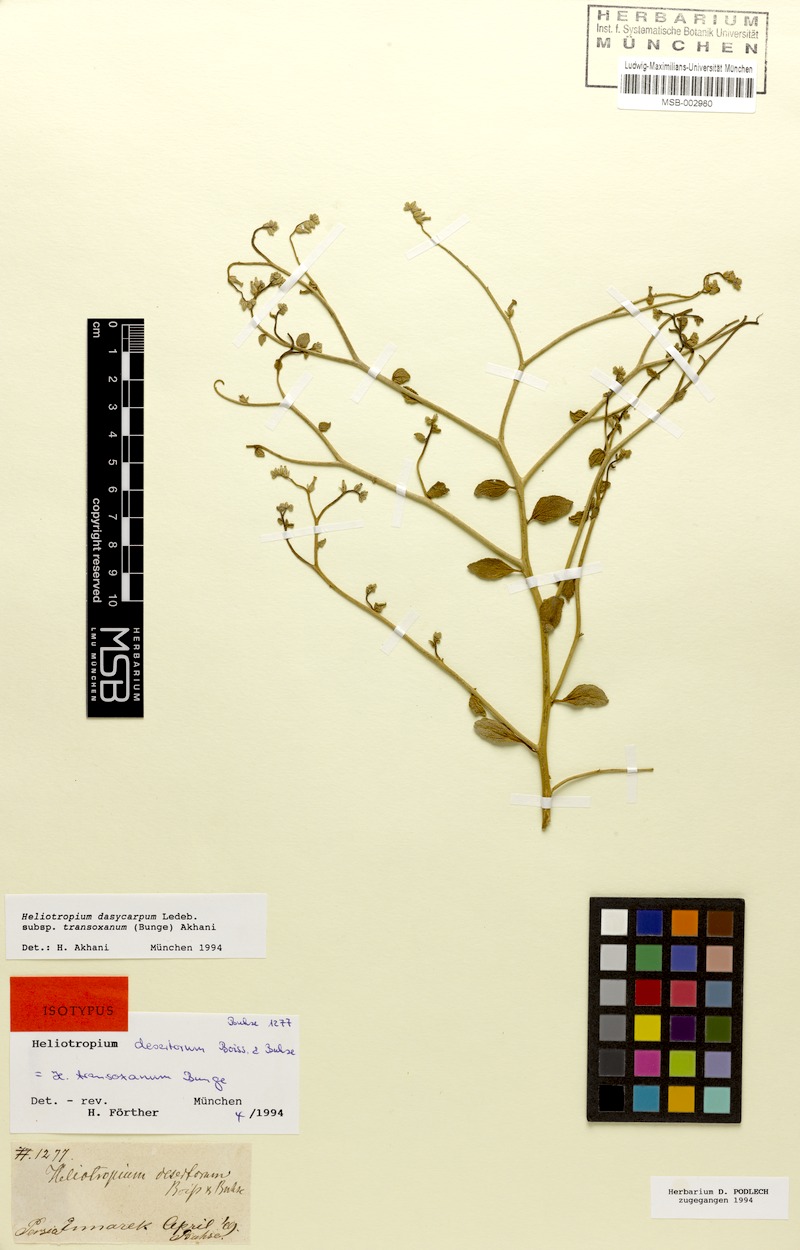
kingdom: Plantae
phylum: Tracheophyta
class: Magnoliopsida
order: Boraginales
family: Heliotropiaceae
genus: Heliotropium
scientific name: Heliotropium dasycarpum
